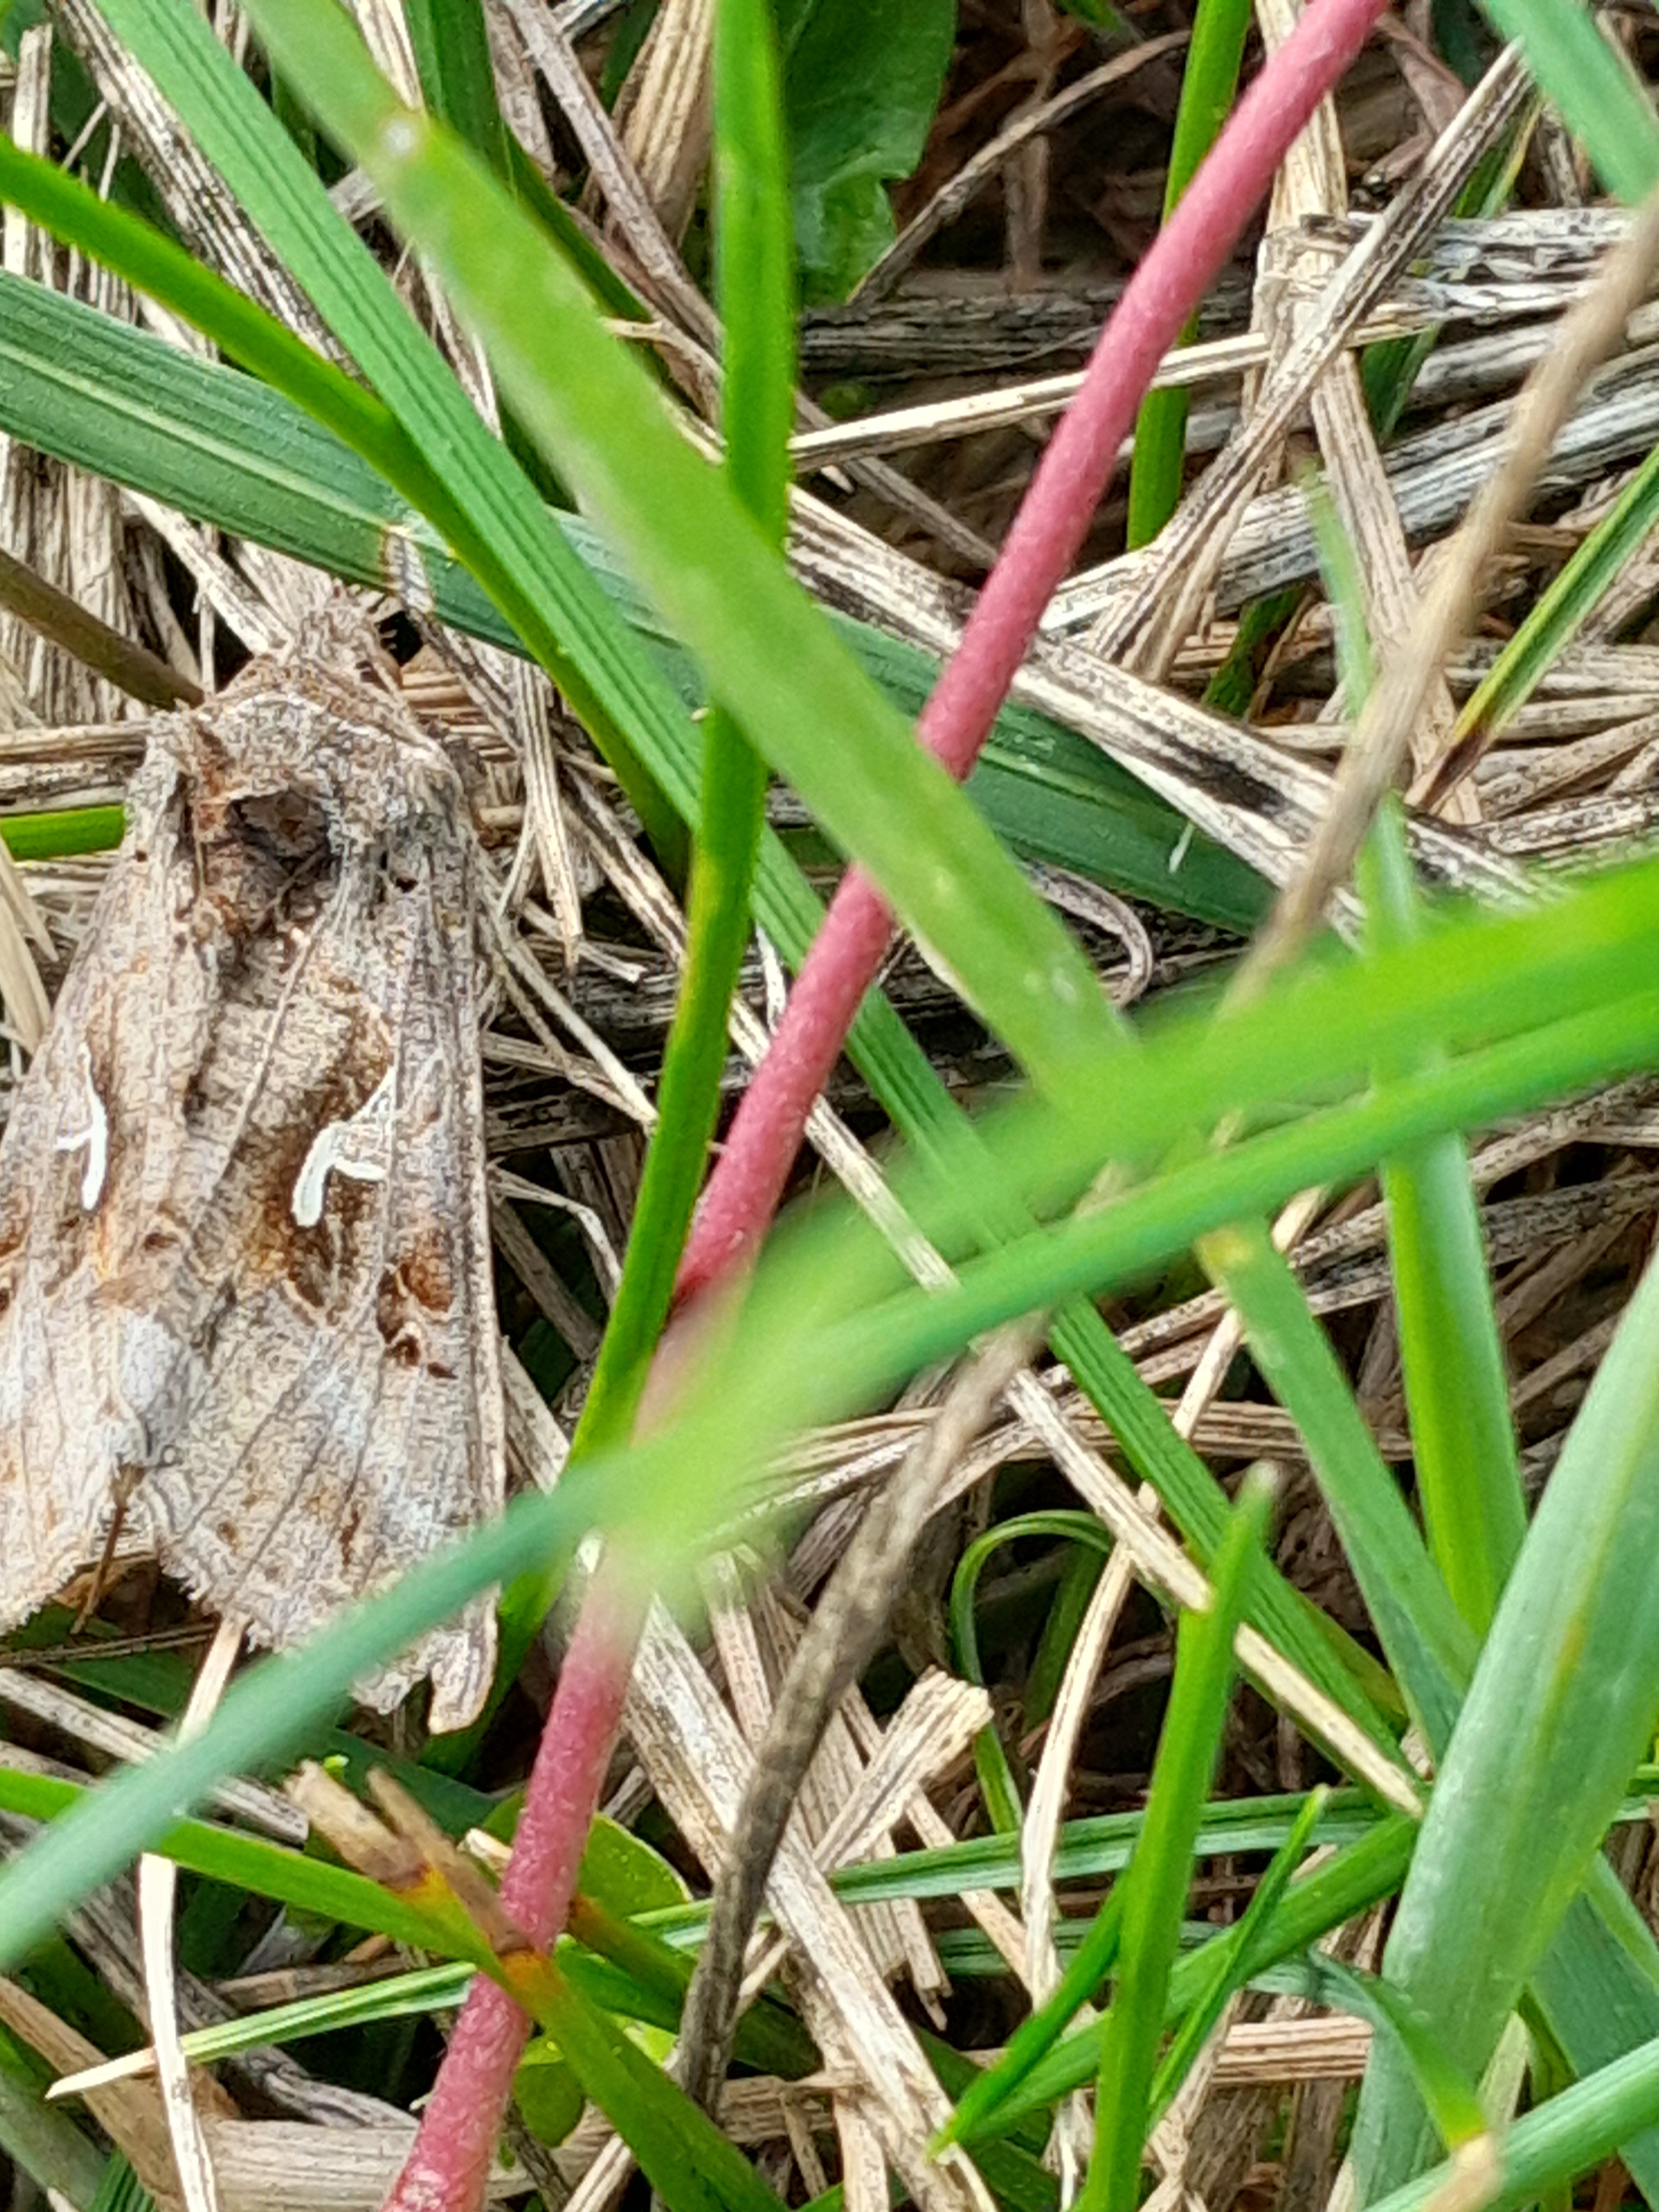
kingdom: Animalia
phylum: Arthropoda
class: Insecta
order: Lepidoptera
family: Noctuidae
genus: Autographa
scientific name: Autographa gamma
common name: Gammaugle
